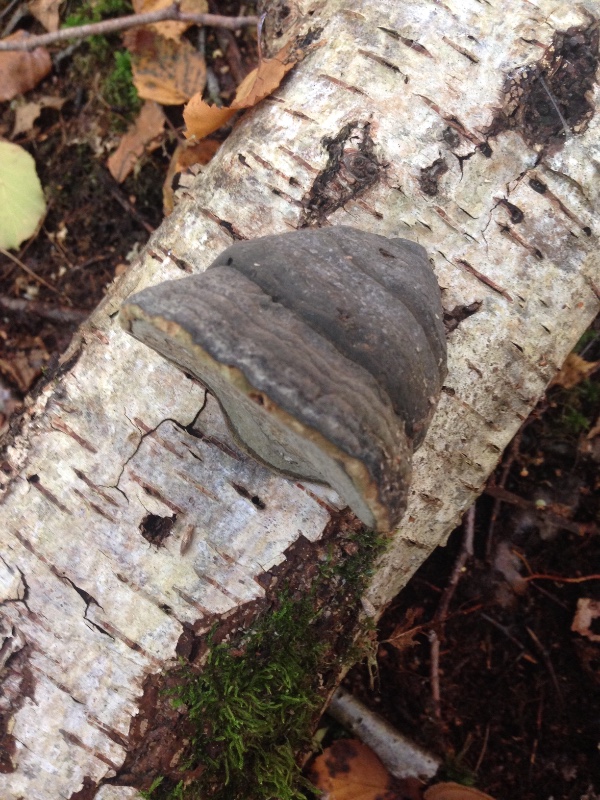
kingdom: Fungi
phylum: Basidiomycota
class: Agaricomycetes
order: Polyporales
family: Polyporaceae
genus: Fomes
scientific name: Fomes fomentarius
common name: tøndersvamp
